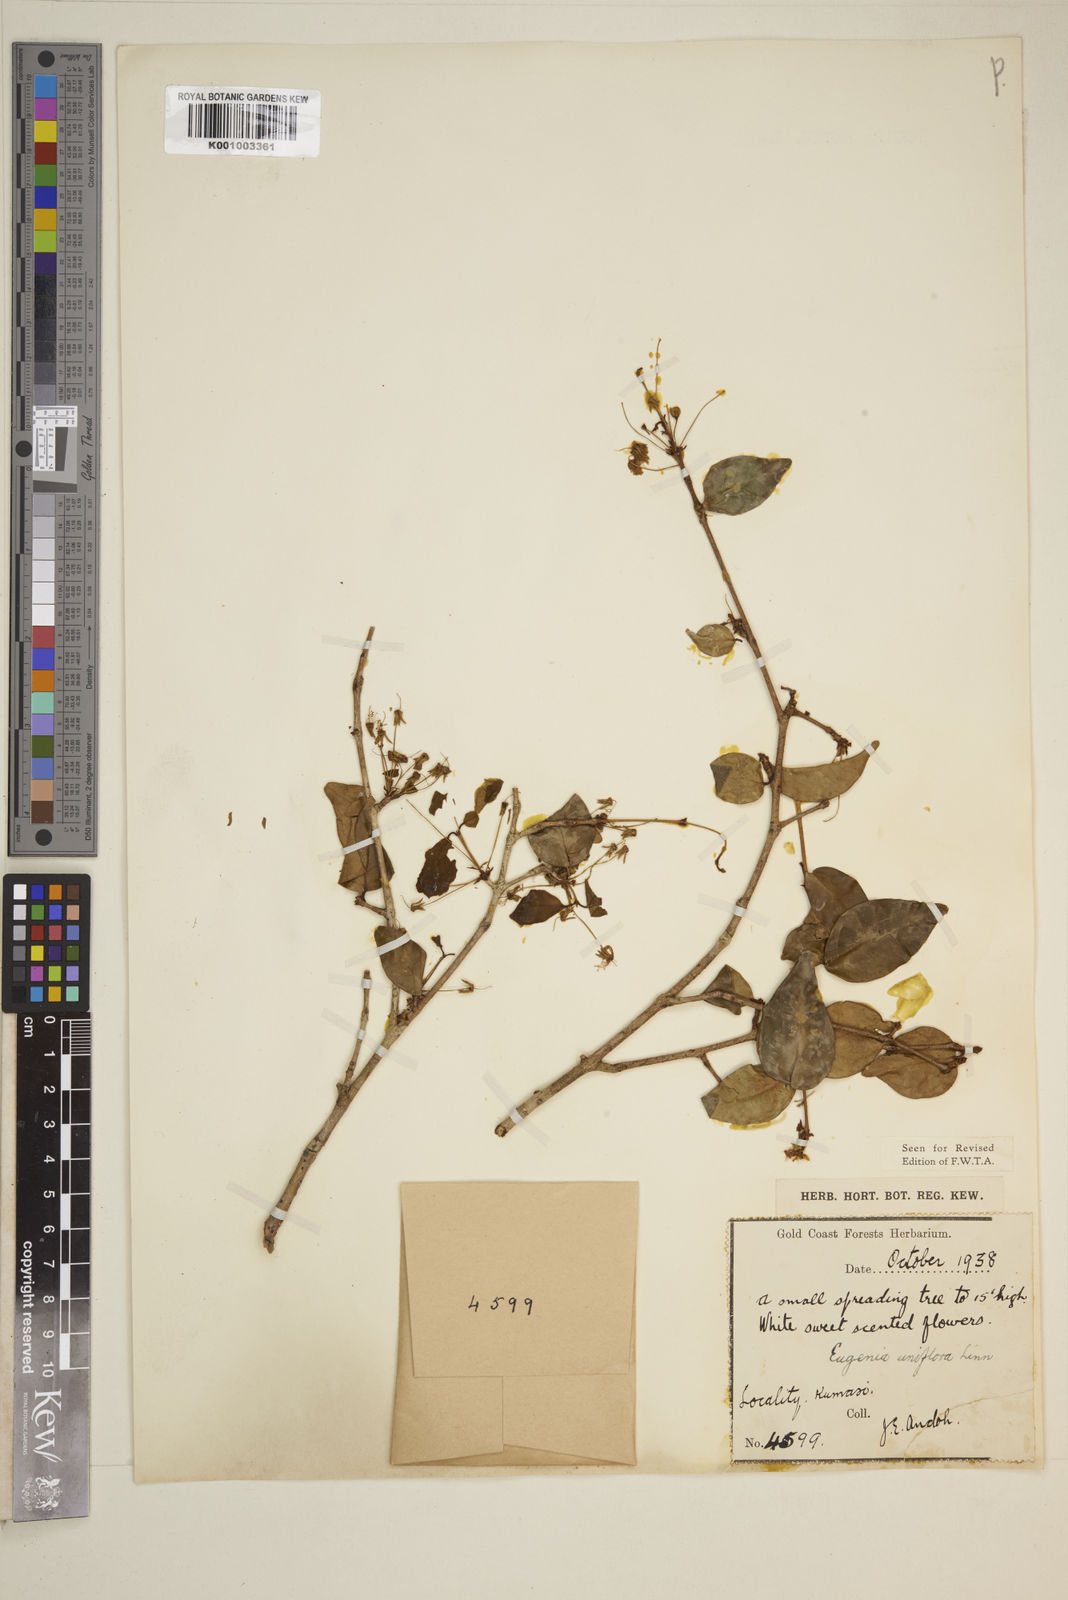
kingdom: Plantae
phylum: Tracheophyta
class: Magnoliopsida
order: Myrtales
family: Myrtaceae
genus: Eugenia
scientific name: Eugenia uniflora
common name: Surinam cherry
